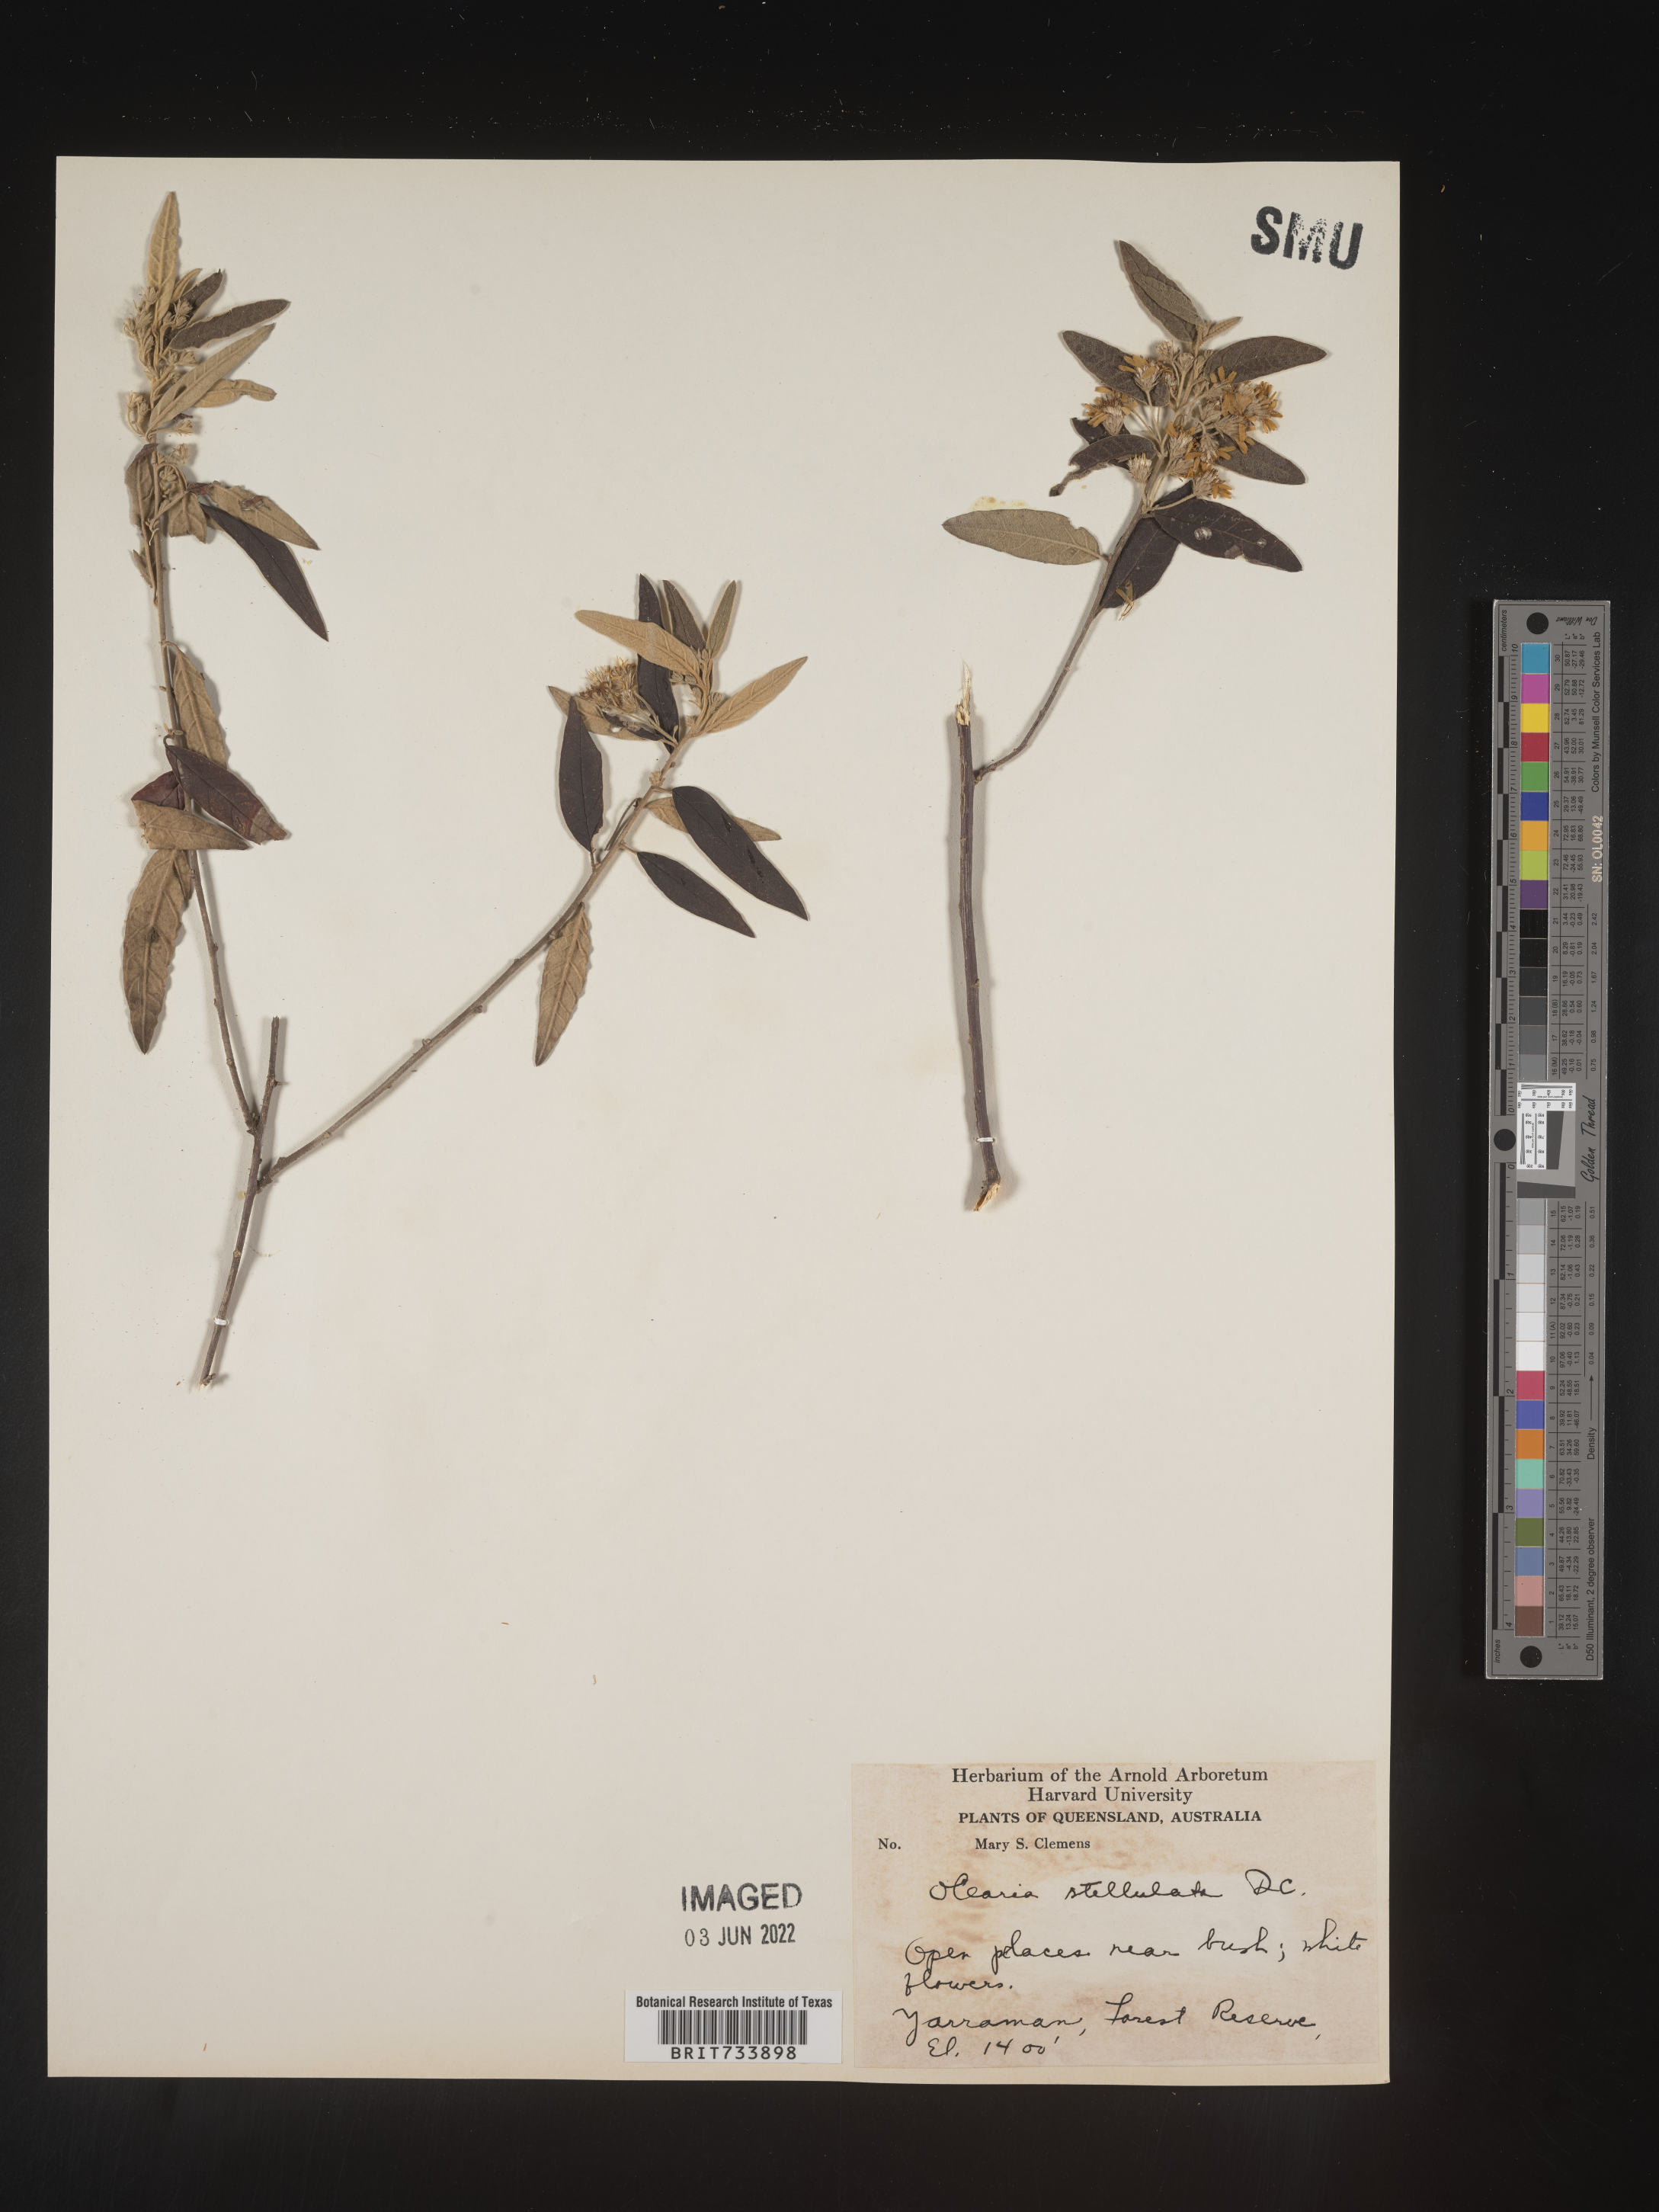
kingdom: Plantae
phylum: Tracheophyta
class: Magnoliopsida
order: Asterales
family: Asteraceae
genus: Olearia
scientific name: Olearia
